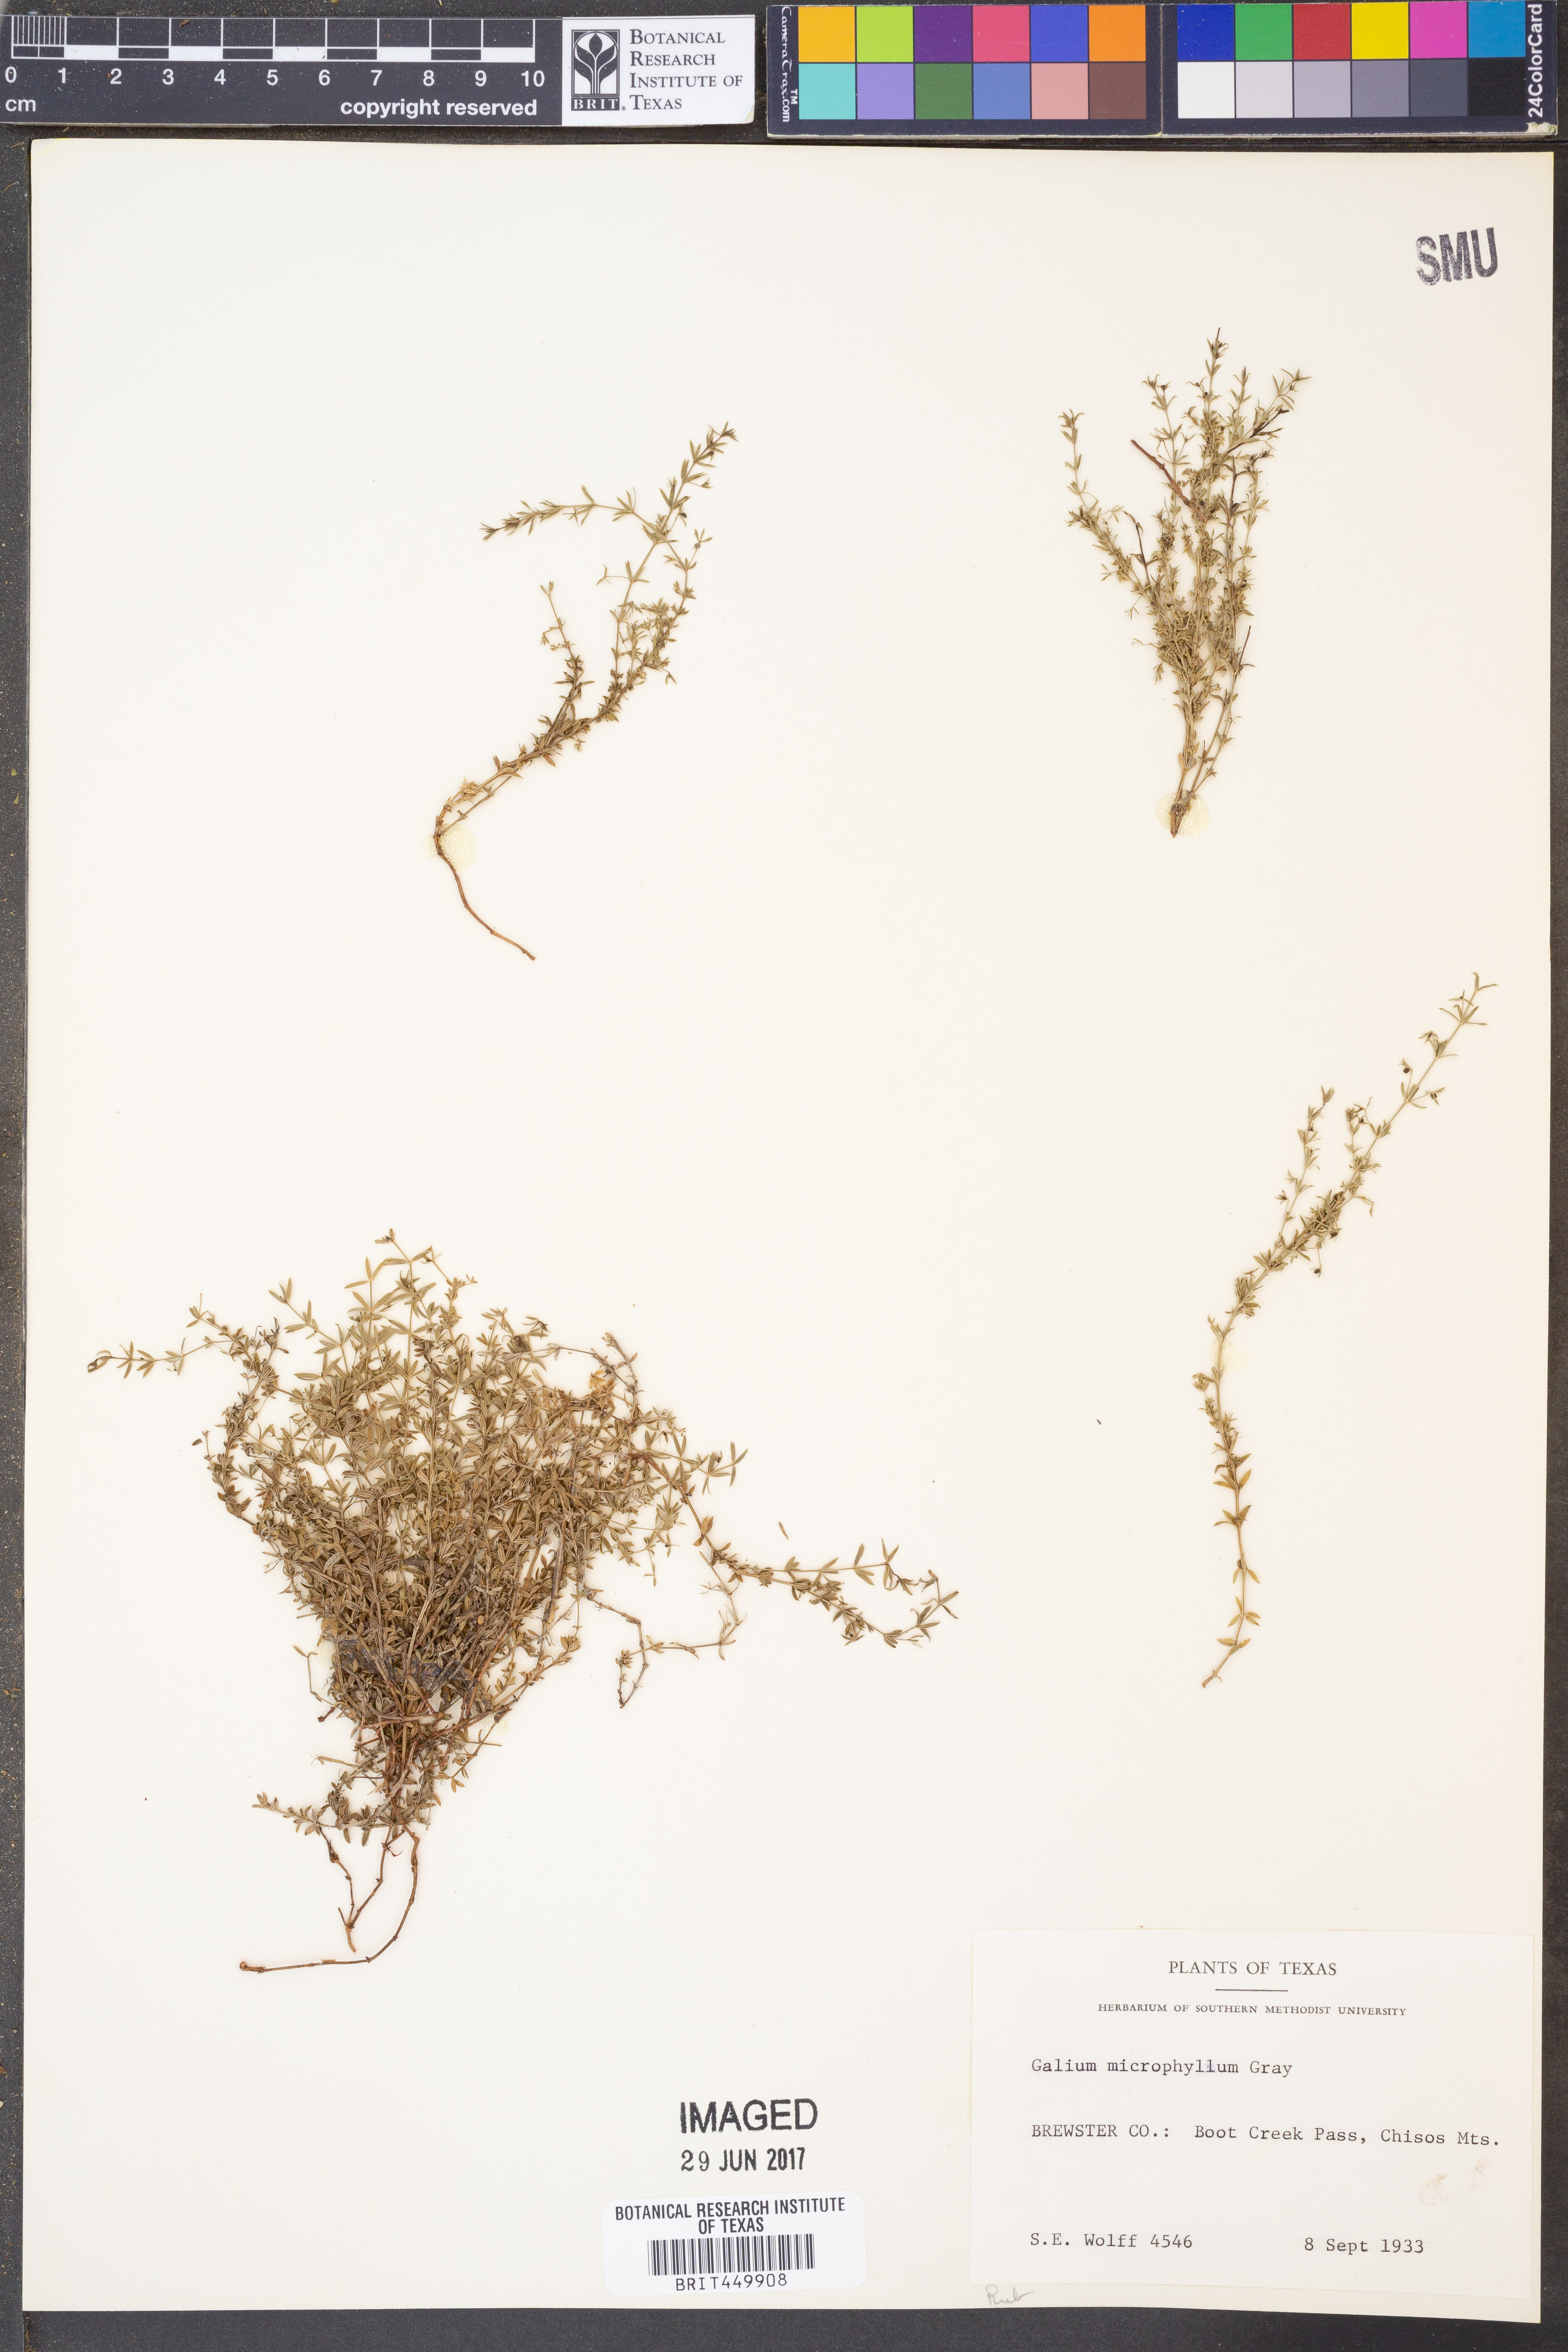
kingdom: Plantae
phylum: Tracheophyta
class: Magnoliopsida
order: Gentianales
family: Rubiaceae
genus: Galium
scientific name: Galium microphyllum
